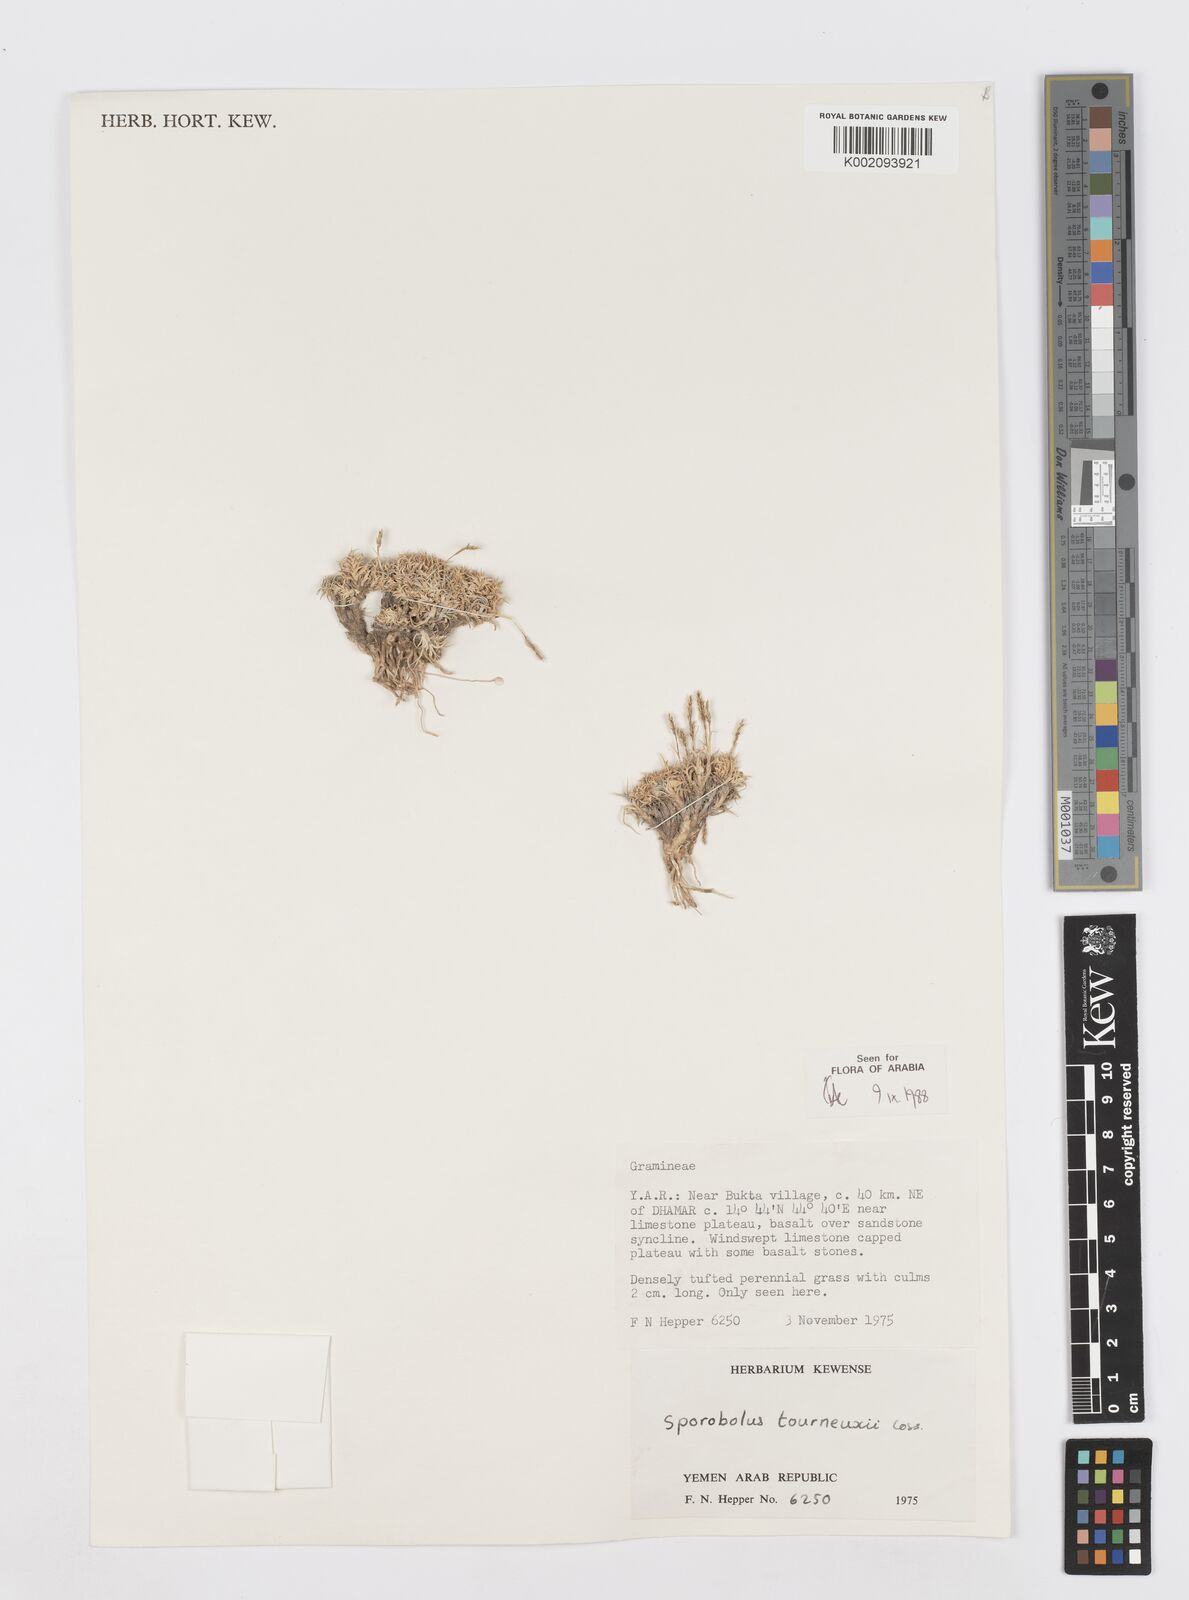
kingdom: Plantae
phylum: Tracheophyta
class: Liliopsida
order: Poales
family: Poaceae
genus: Sporobolus
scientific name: Sporobolus tourneuxii
